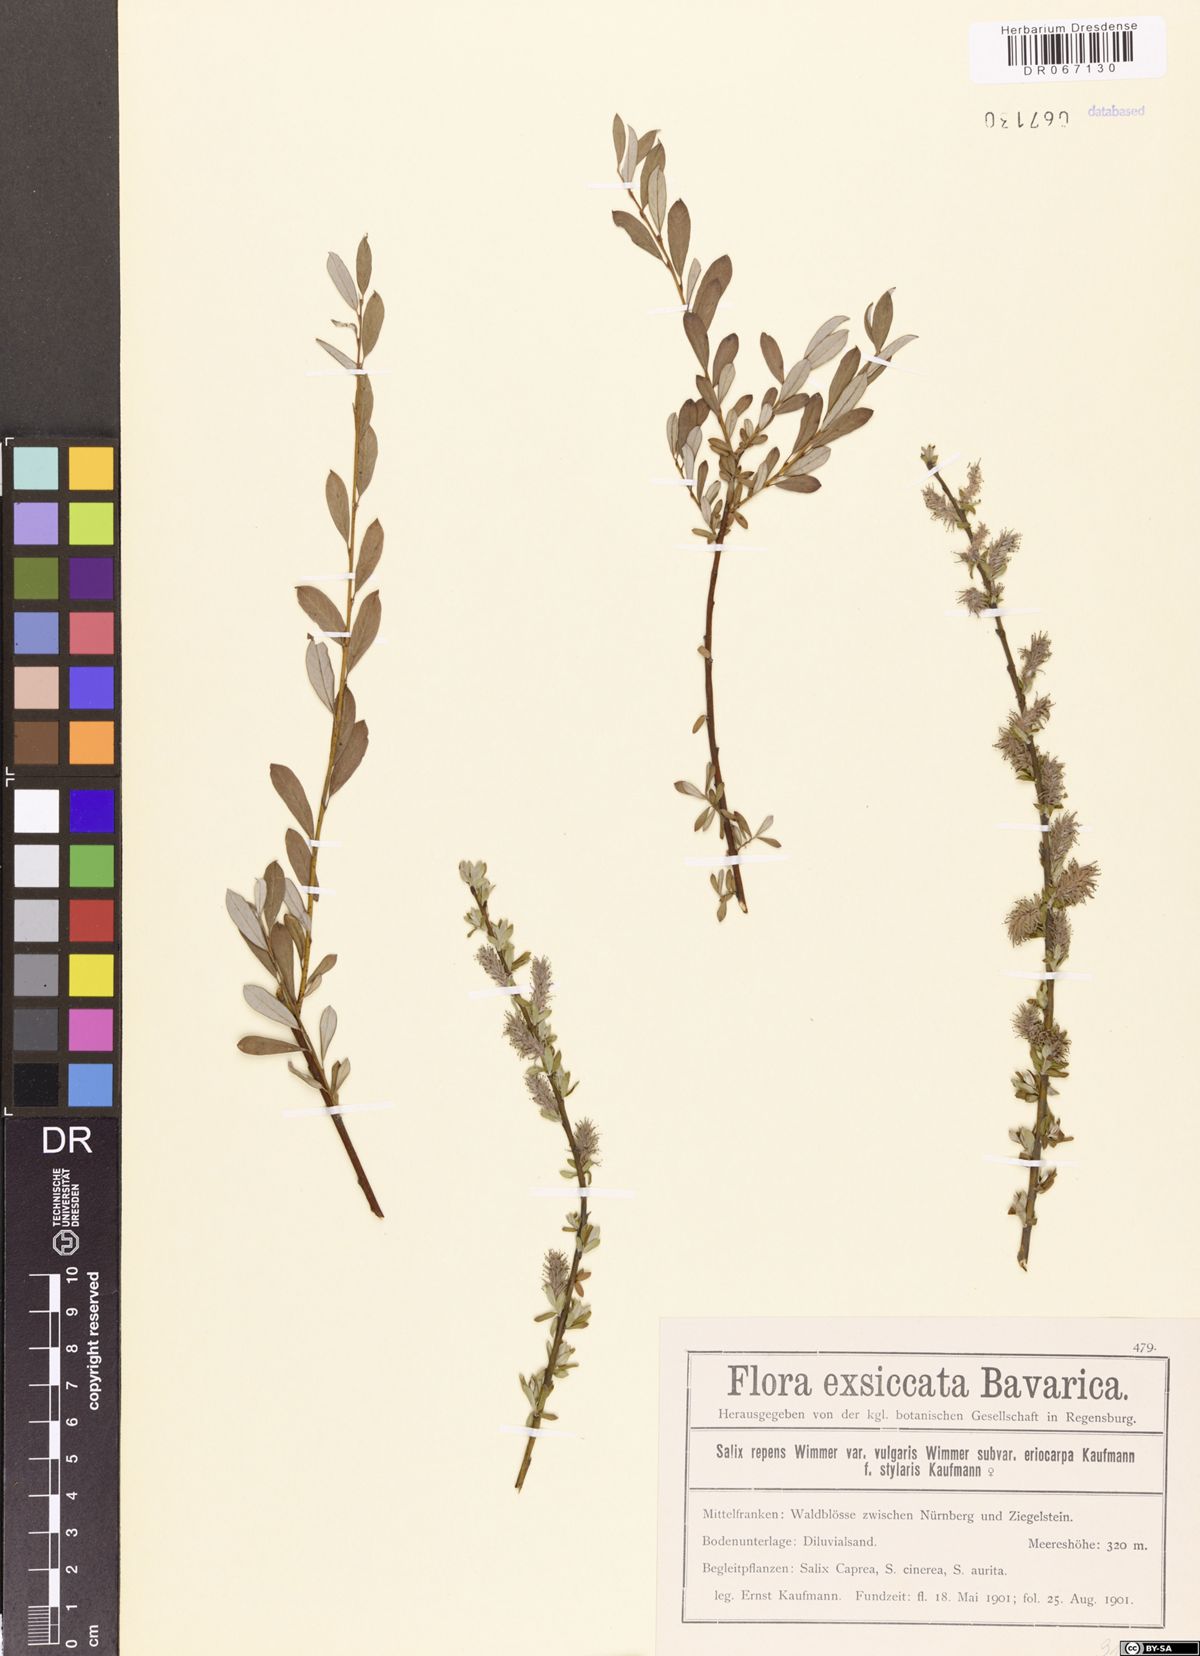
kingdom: Plantae
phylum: Tracheophyta
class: Magnoliopsida
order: Malpighiales
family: Salicaceae
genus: Salix
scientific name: Salix repens
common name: Creeping willow
